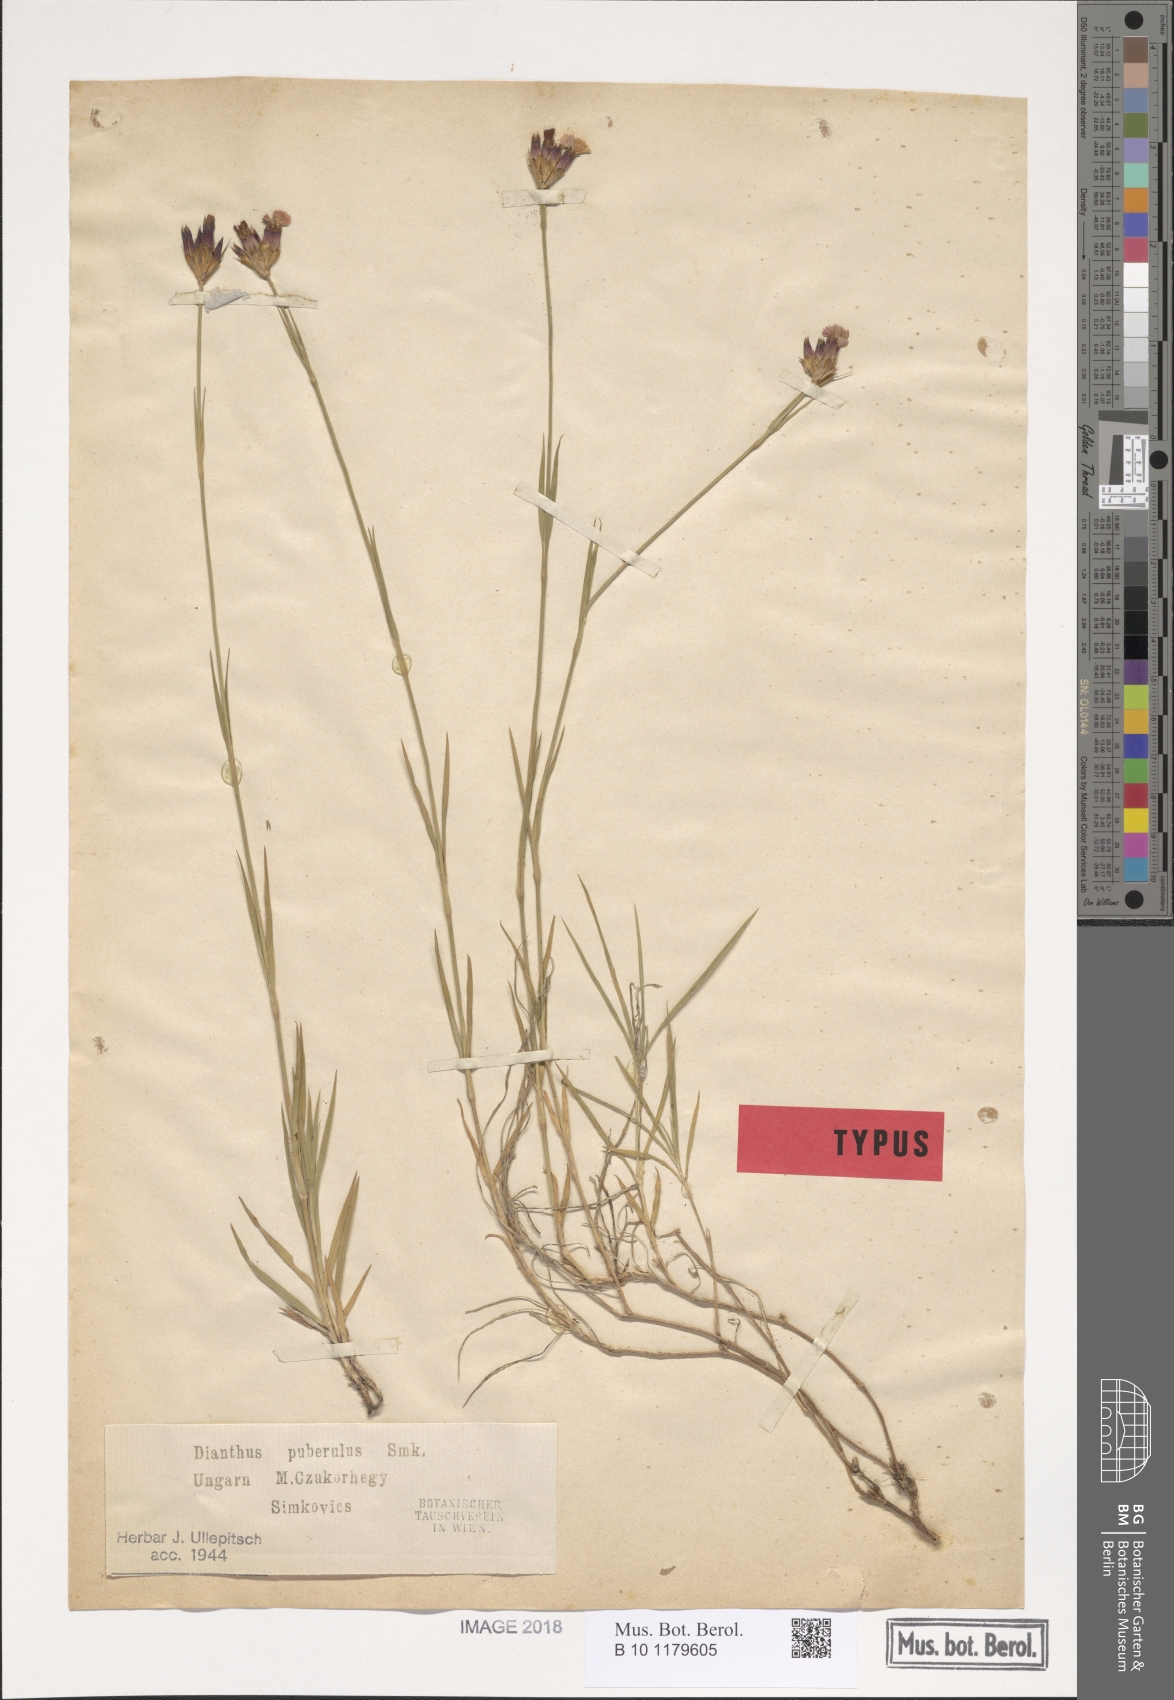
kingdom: Plantae
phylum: Tracheophyta
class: Magnoliopsida
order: Caryophyllales
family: Caryophyllaceae
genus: Dianthus
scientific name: Dianthus carthusianorum
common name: Carthusian pink
